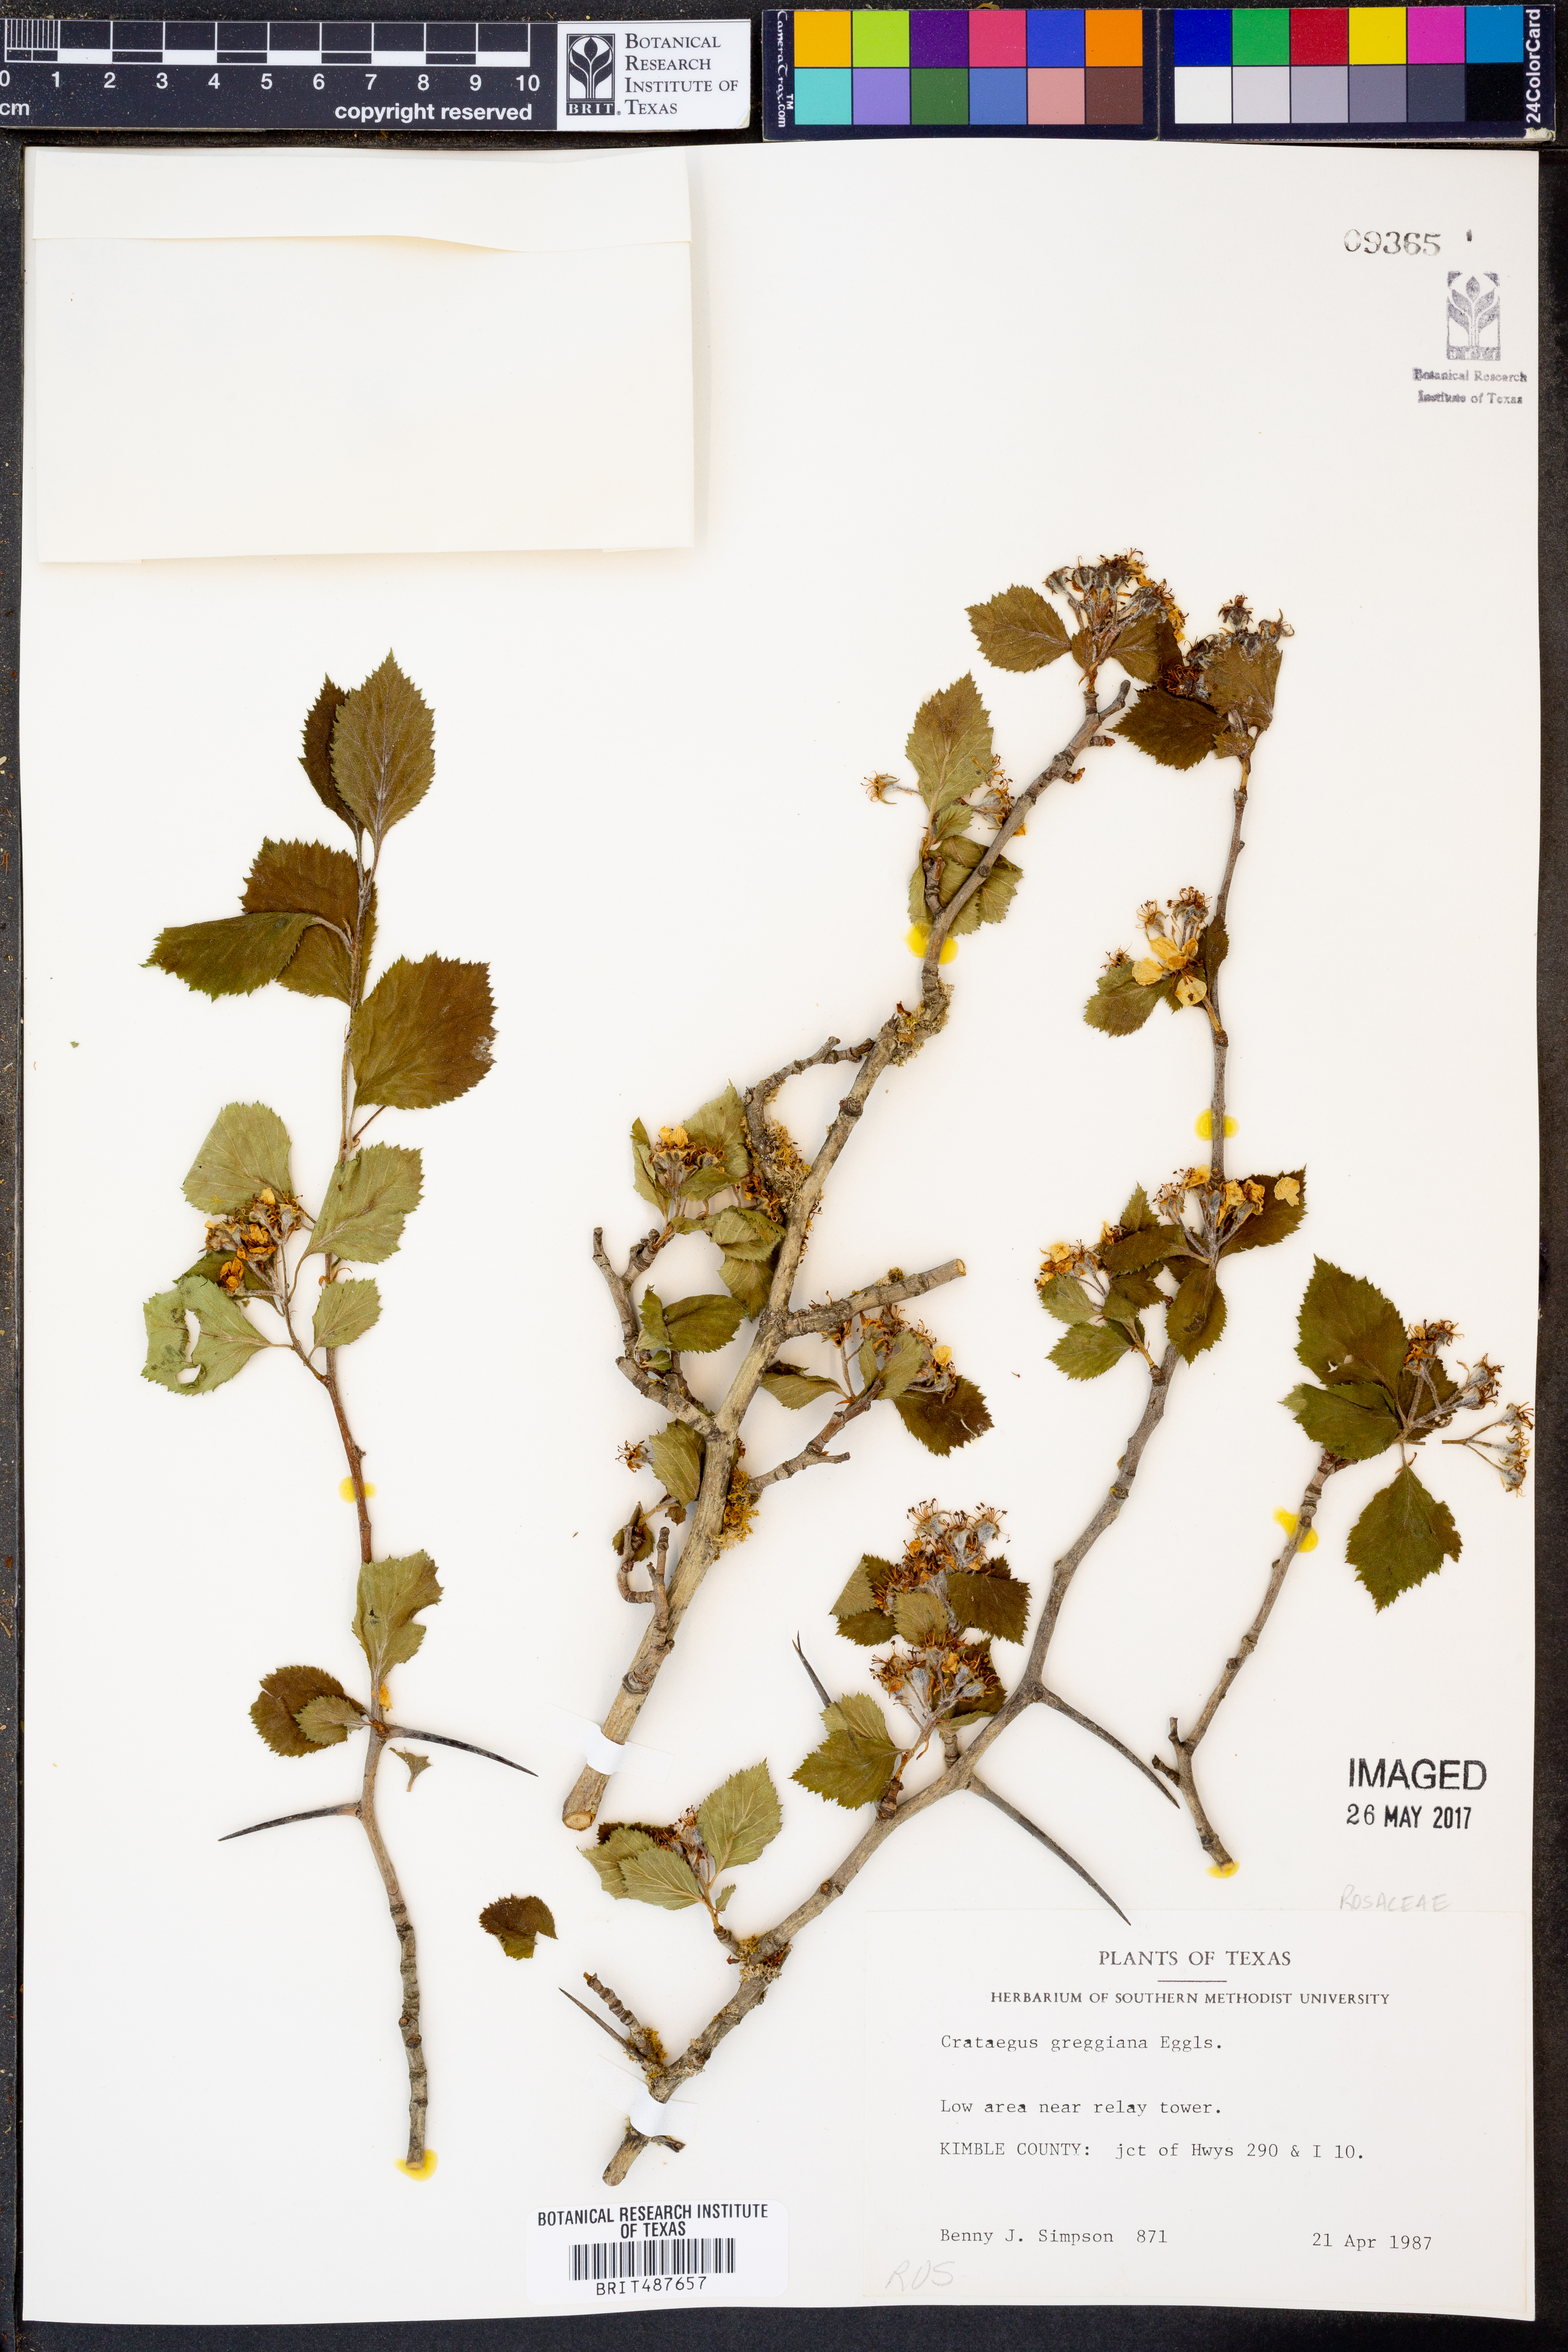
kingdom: Plantae
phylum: Tracheophyta
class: Magnoliopsida
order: Rosales
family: Rosaceae
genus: Crataegus
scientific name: Crataegus greggiana
